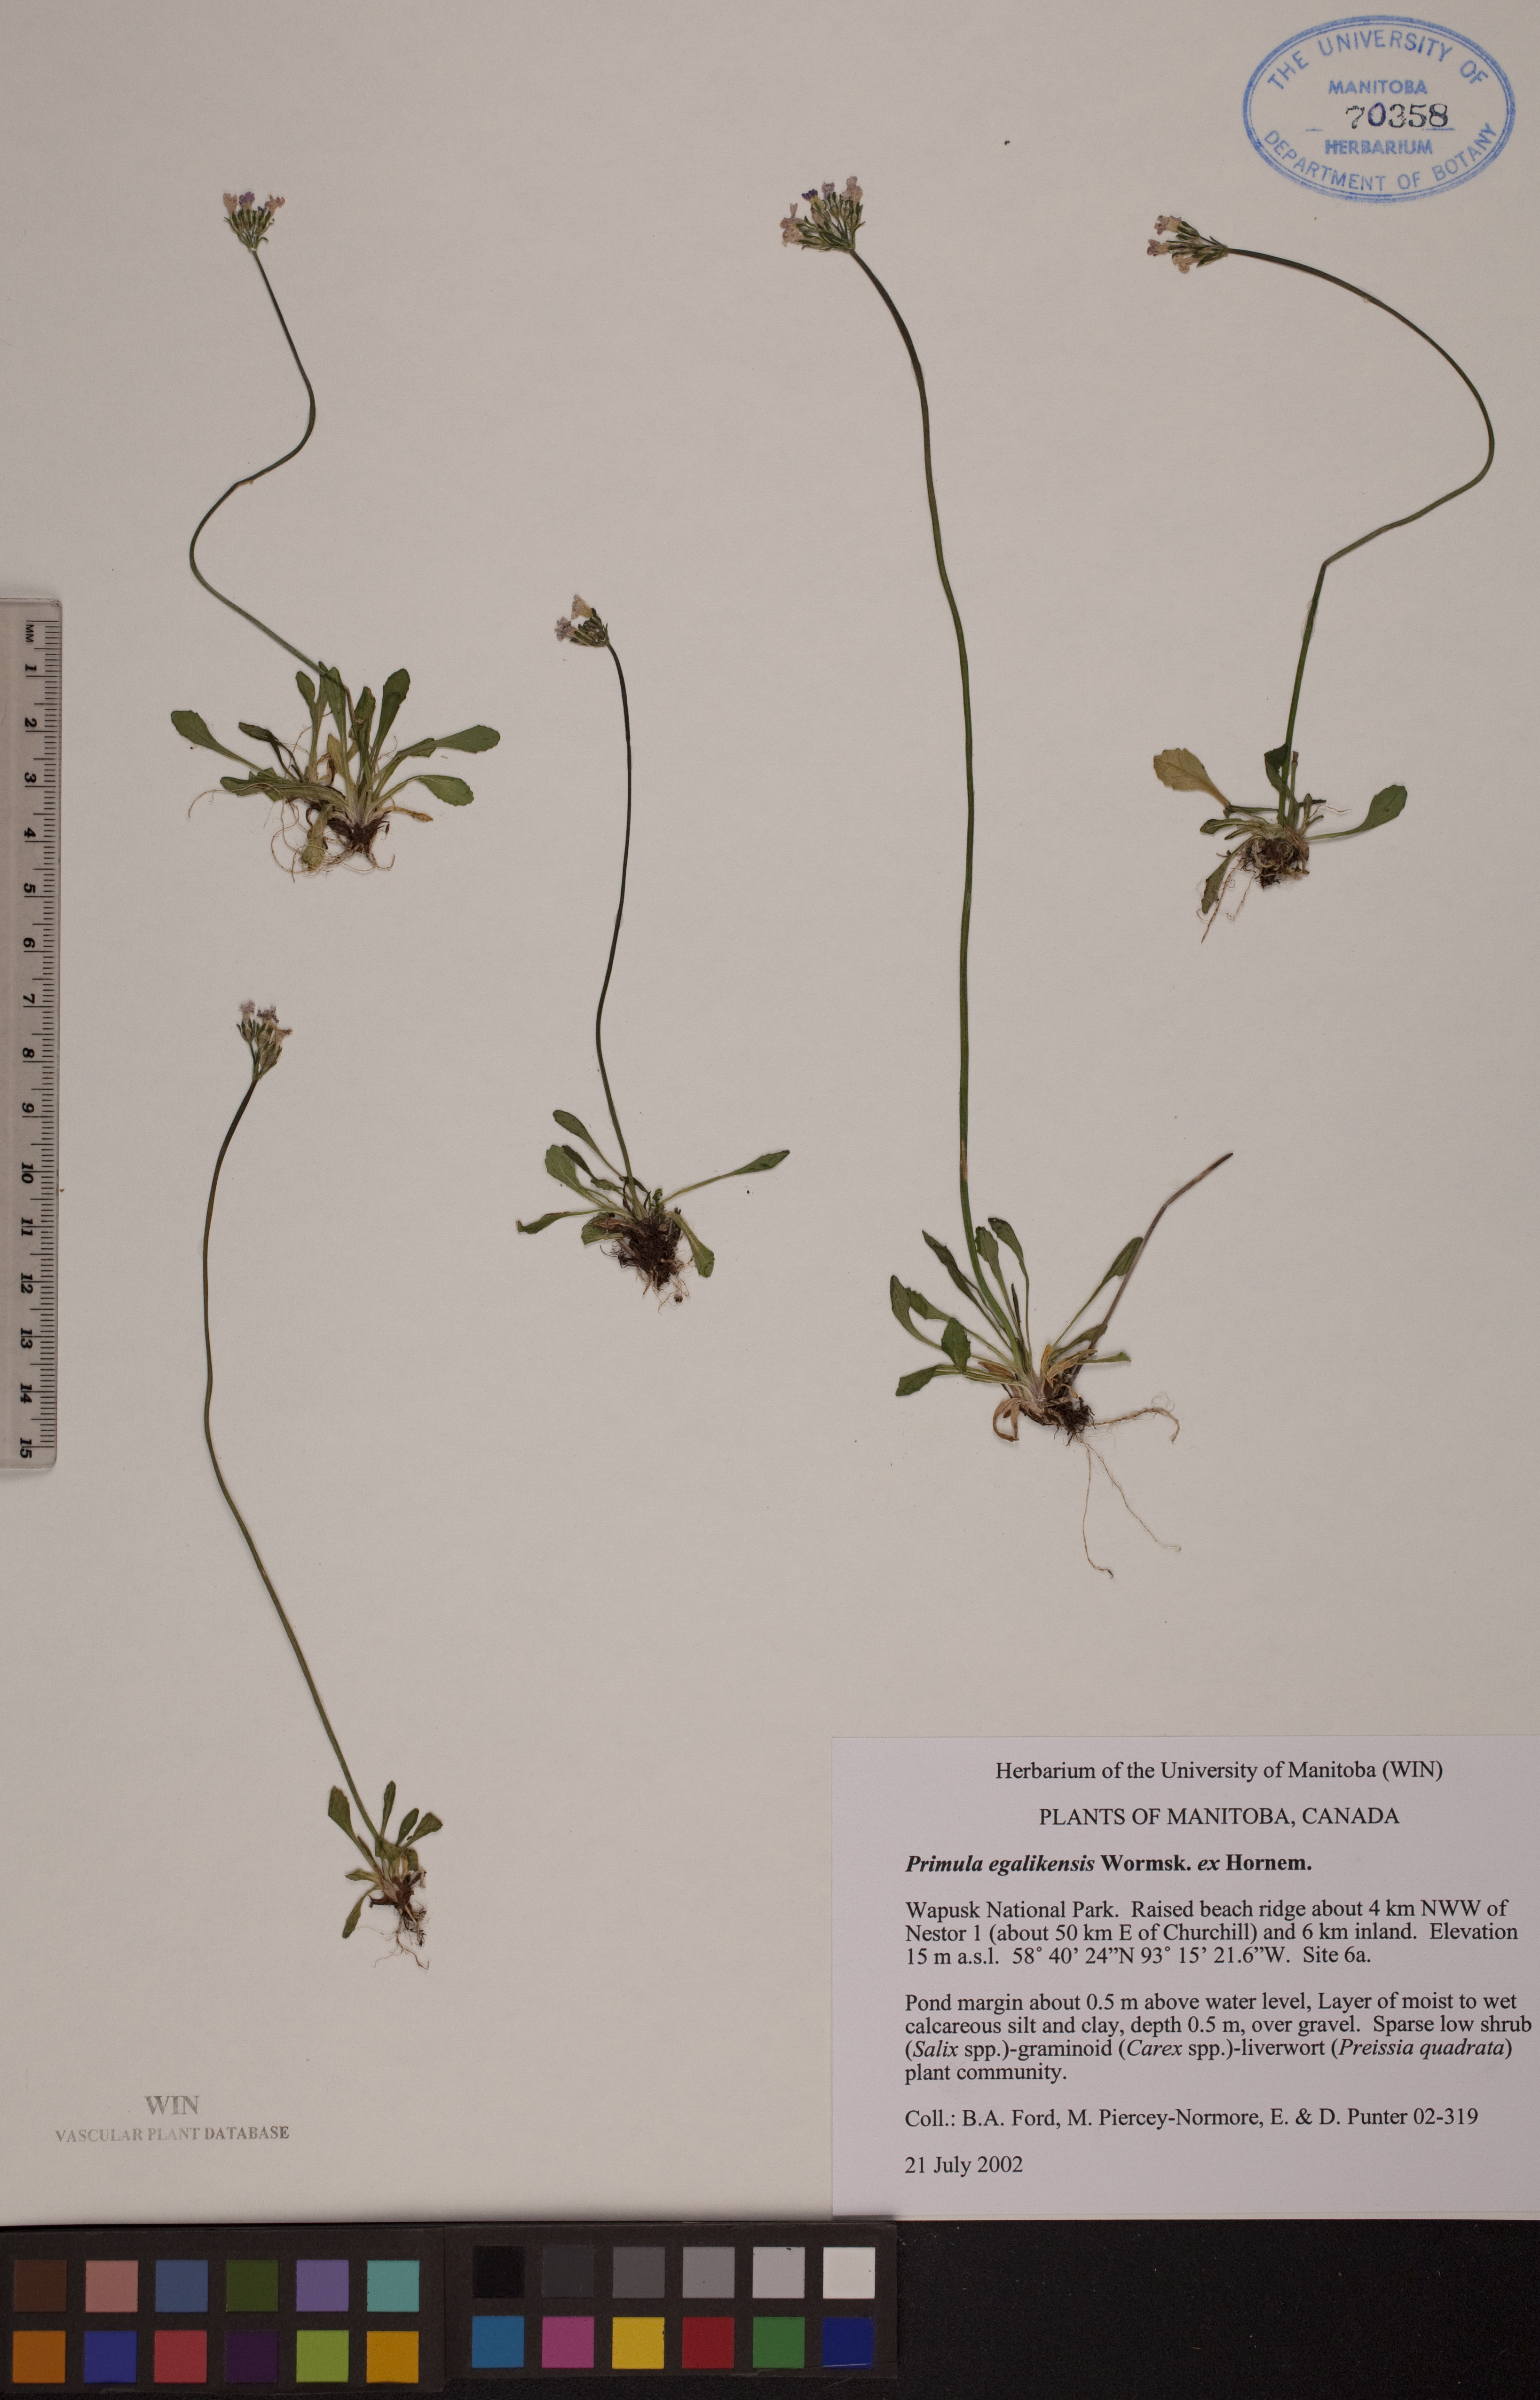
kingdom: Plantae
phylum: Tracheophyta
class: Magnoliopsida
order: Ericales
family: Primulaceae
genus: Primula
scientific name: Primula egaliksensis
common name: Greenland primrose
